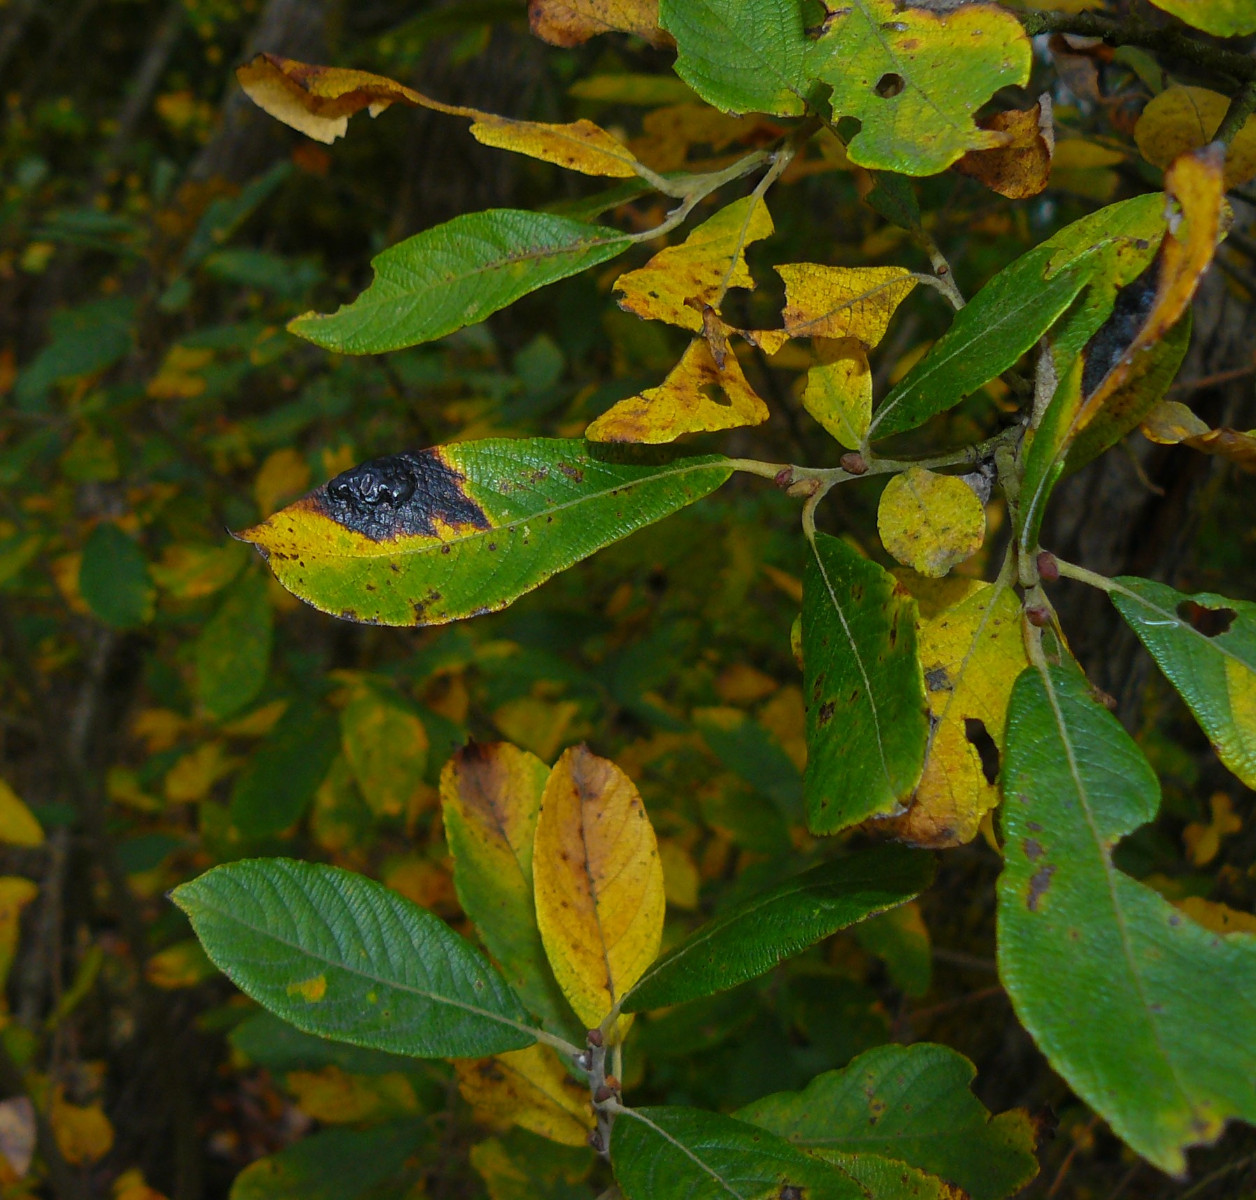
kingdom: Fungi
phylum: Ascomycota
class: Leotiomycetes
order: Rhytismatales
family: Rhytismataceae
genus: Rhytisma
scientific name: Rhytisma salicinum
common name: pile-rynkeplet
